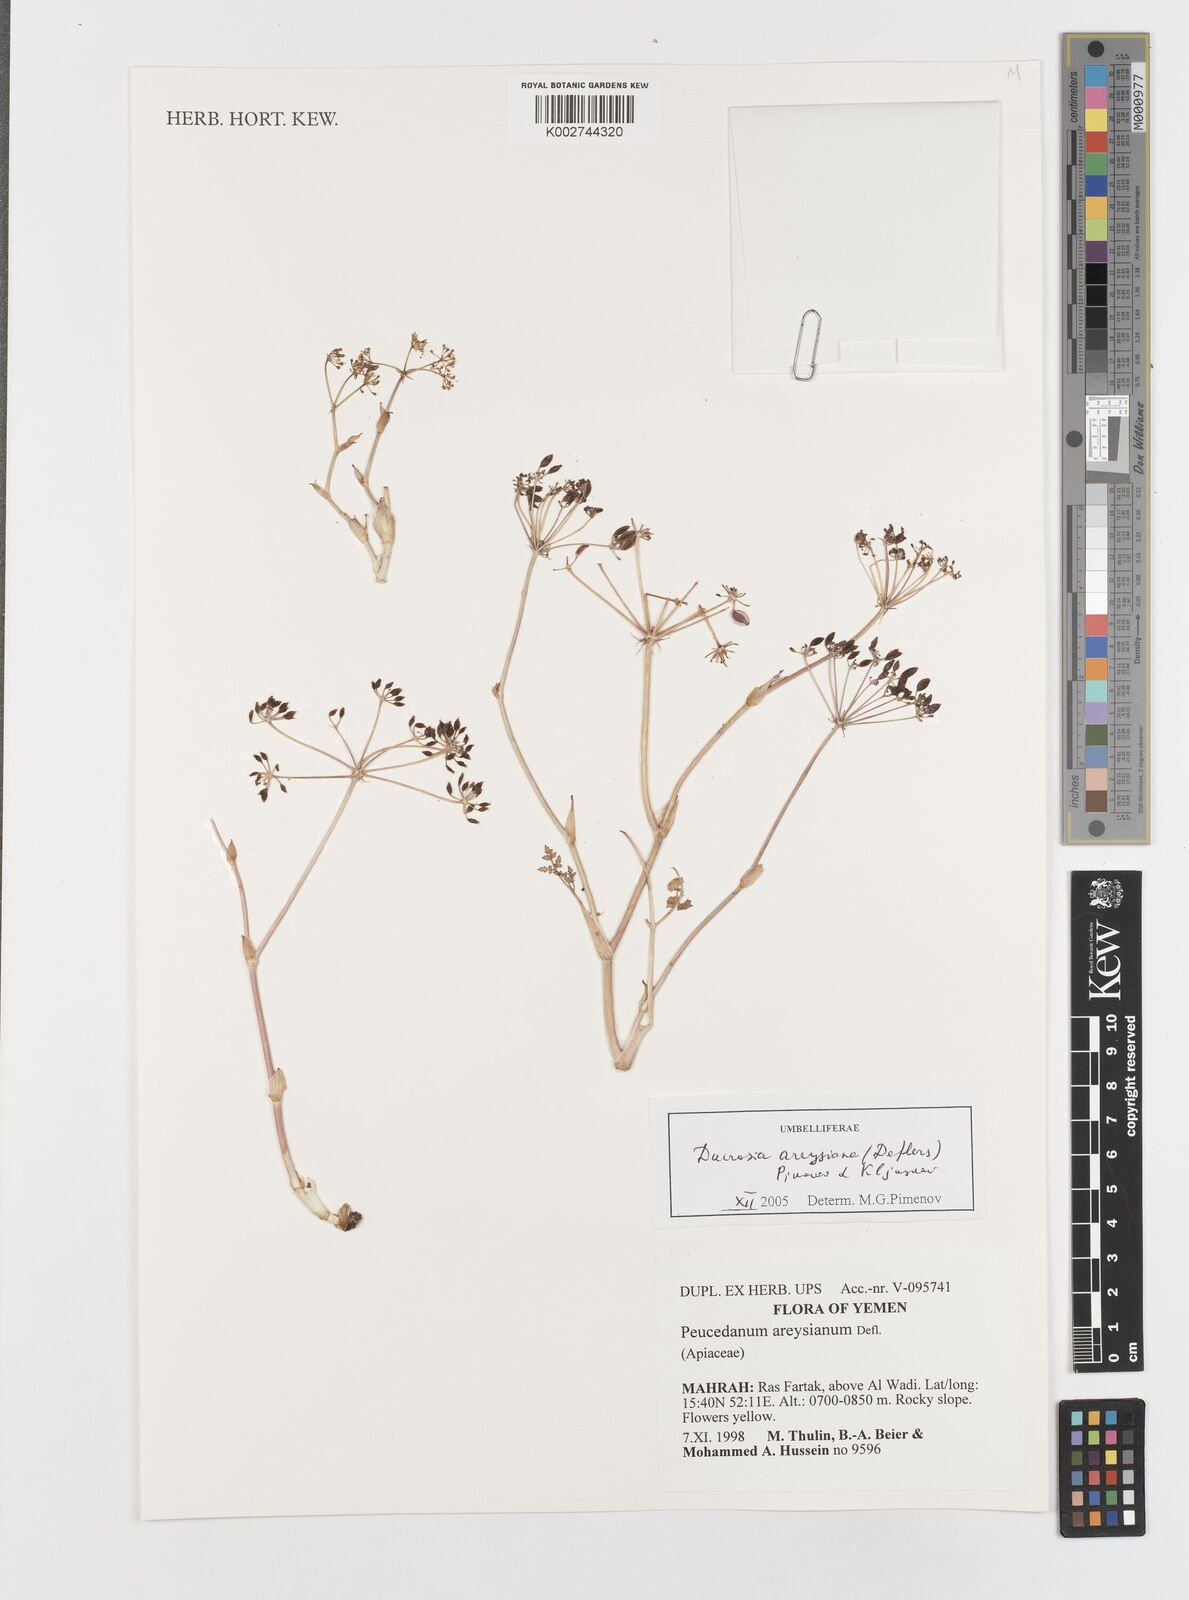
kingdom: Plantae
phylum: Tracheophyta
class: Magnoliopsida
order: Apiales
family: Apiaceae
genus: Ducrosia
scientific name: Ducrosia areysiana
